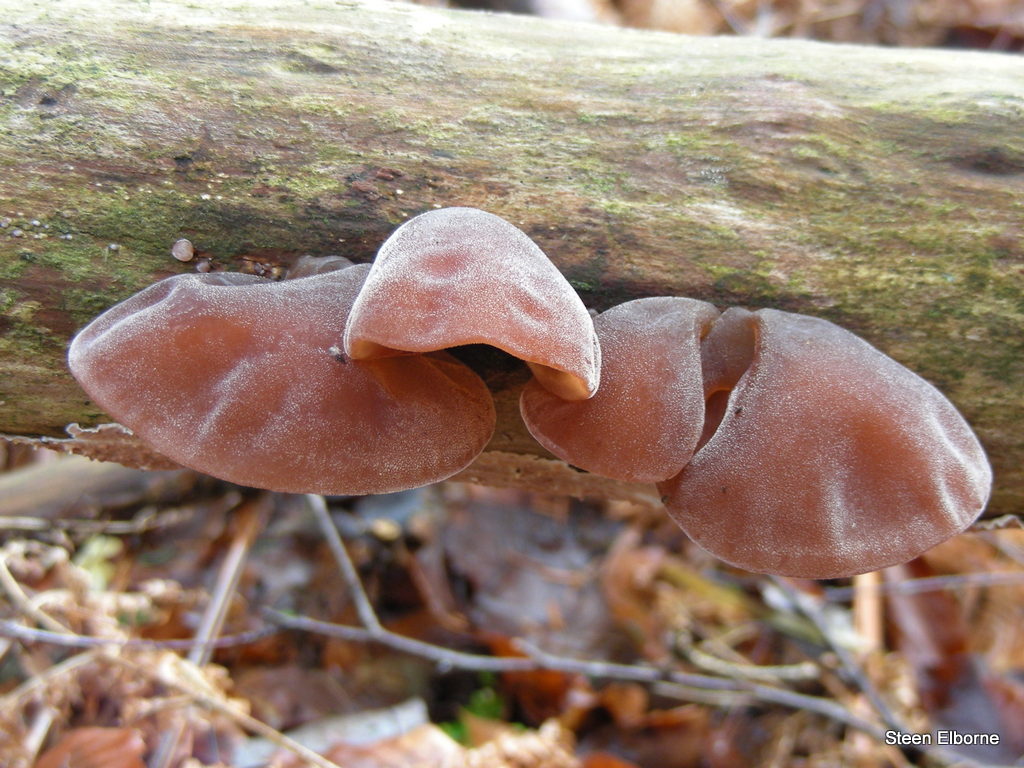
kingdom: Fungi
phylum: Basidiomycota
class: Agaricomycetes
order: Auriculariales
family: Auriculariaceae
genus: Auricularia
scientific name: Auricularia auricula-judae
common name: almindelig judasøre
